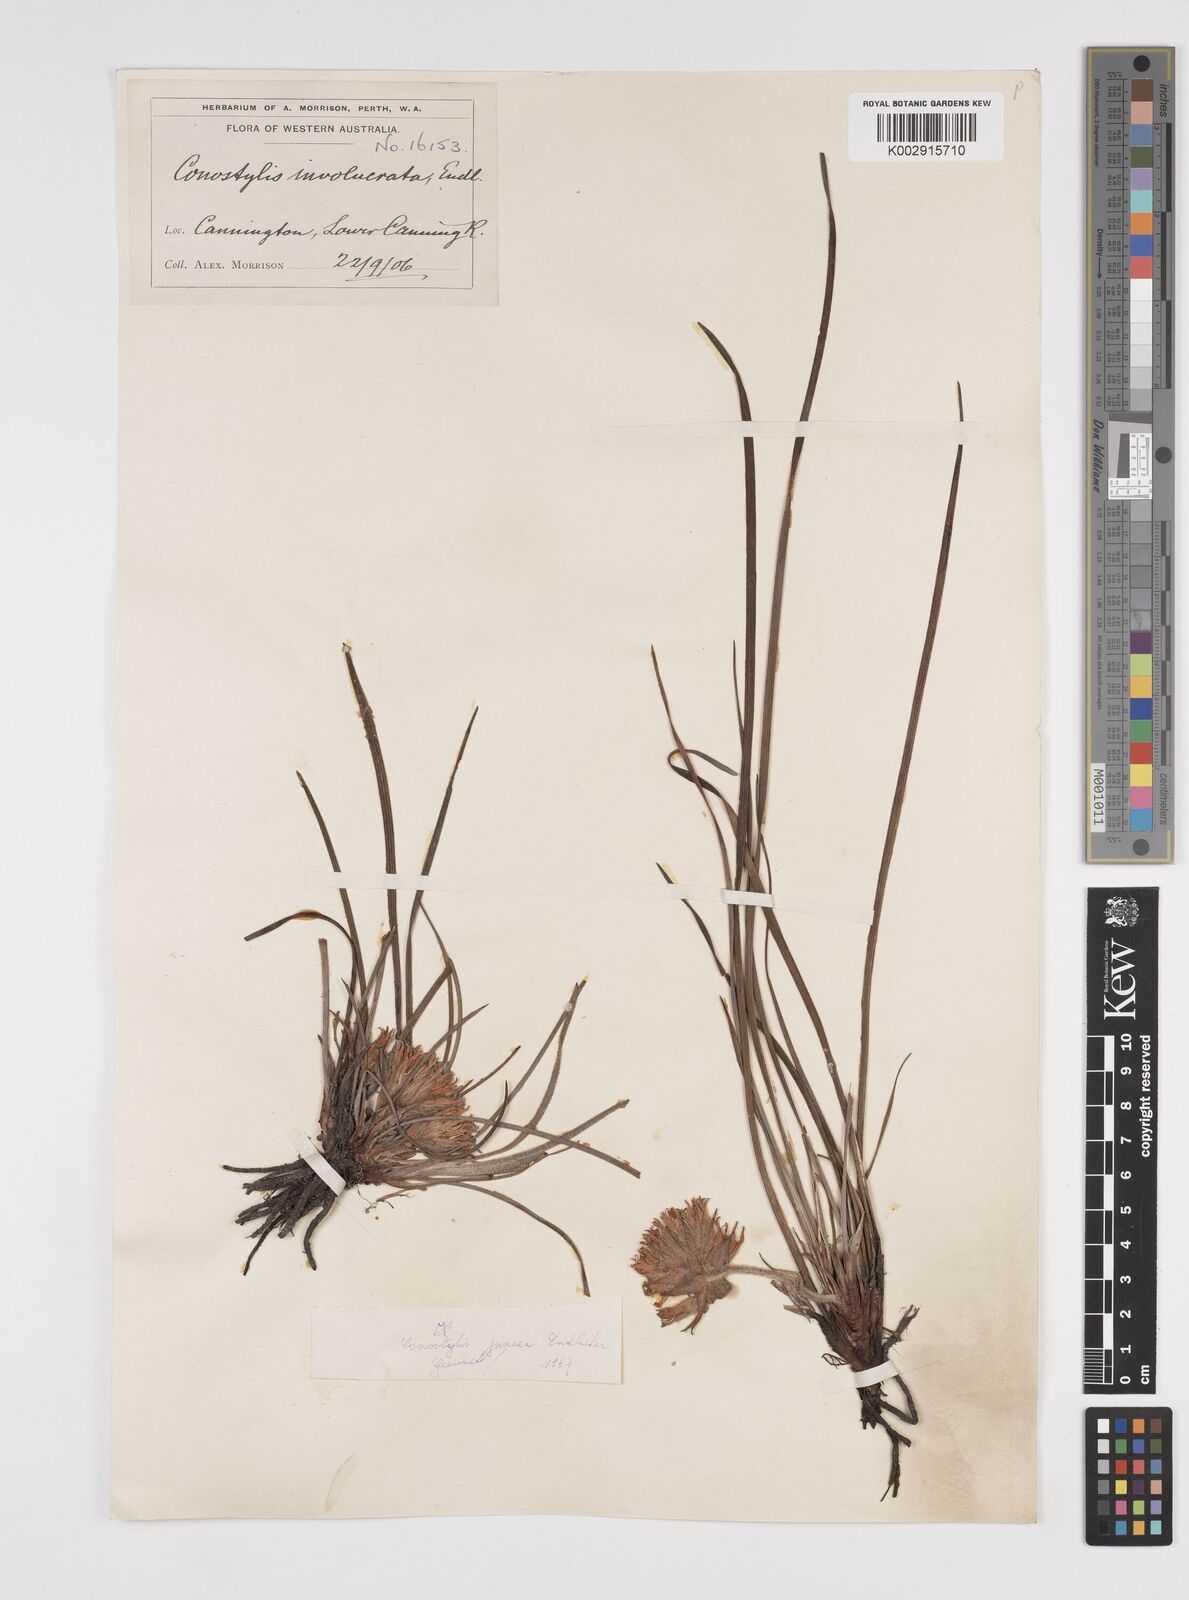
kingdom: Plantae
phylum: Tracheophyta
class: Liliopsida
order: Commelinales
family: Haemodoraceae
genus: Conostylis
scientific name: Conostylis juncea
